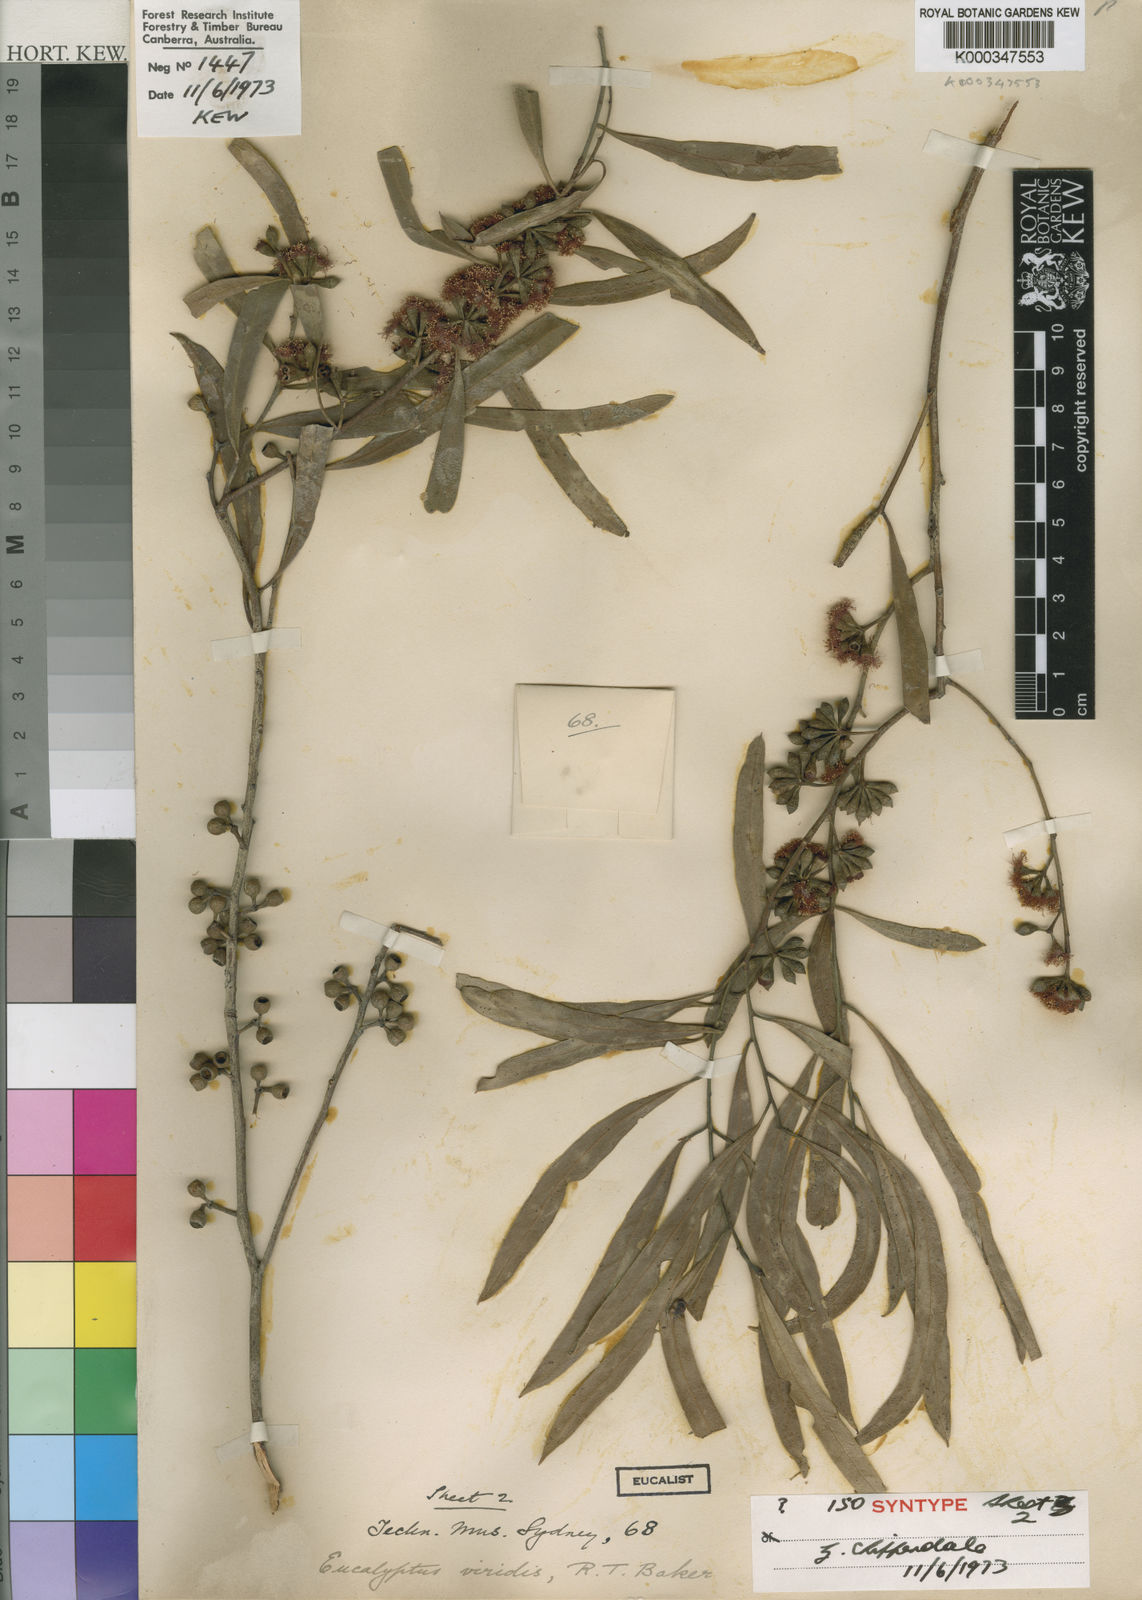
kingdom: Plantae
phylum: Tracheophyta
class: Magnoliopsida
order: Myrtales
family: Myrtaceae
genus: Eucalyptus
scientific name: Eucalyptus viridis
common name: Green mallee
